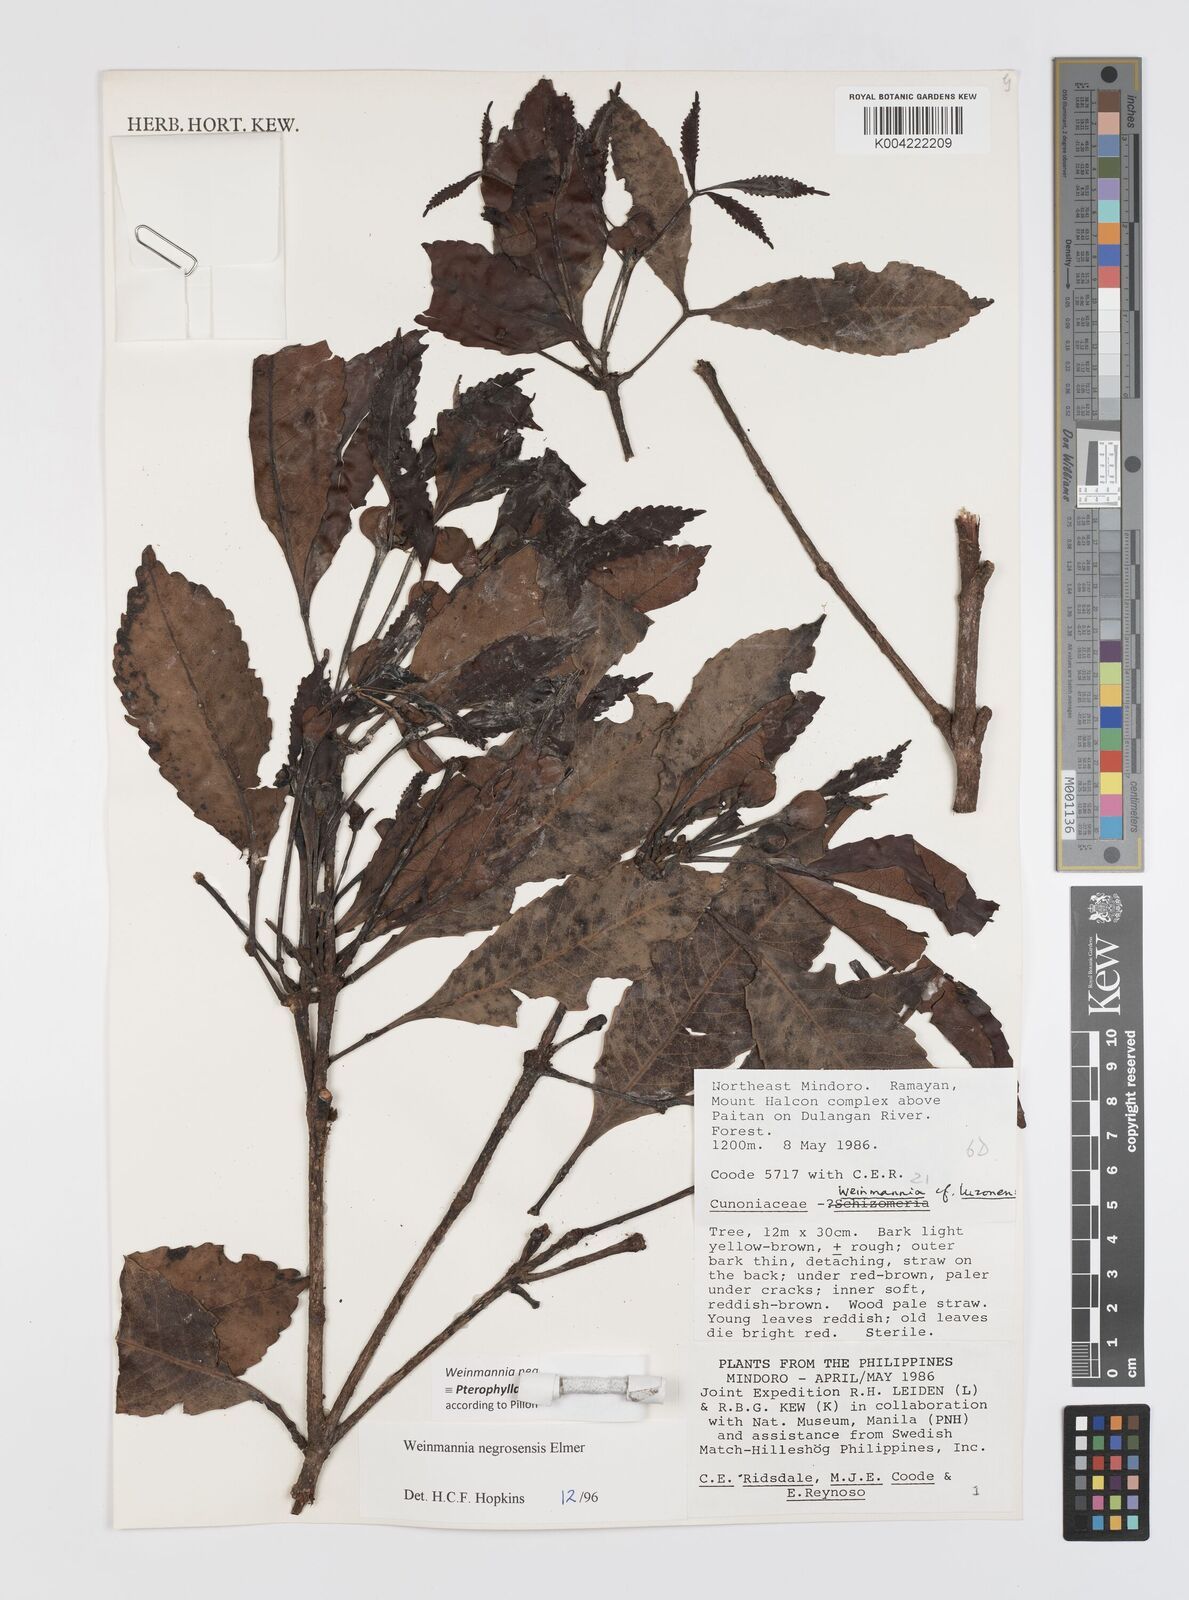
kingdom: Plantae
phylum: Tracheophyta
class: Magnoliopsida
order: Oxalidales
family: Cunoniaceae
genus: Pterophylla
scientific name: Pterophylla negrosensis
